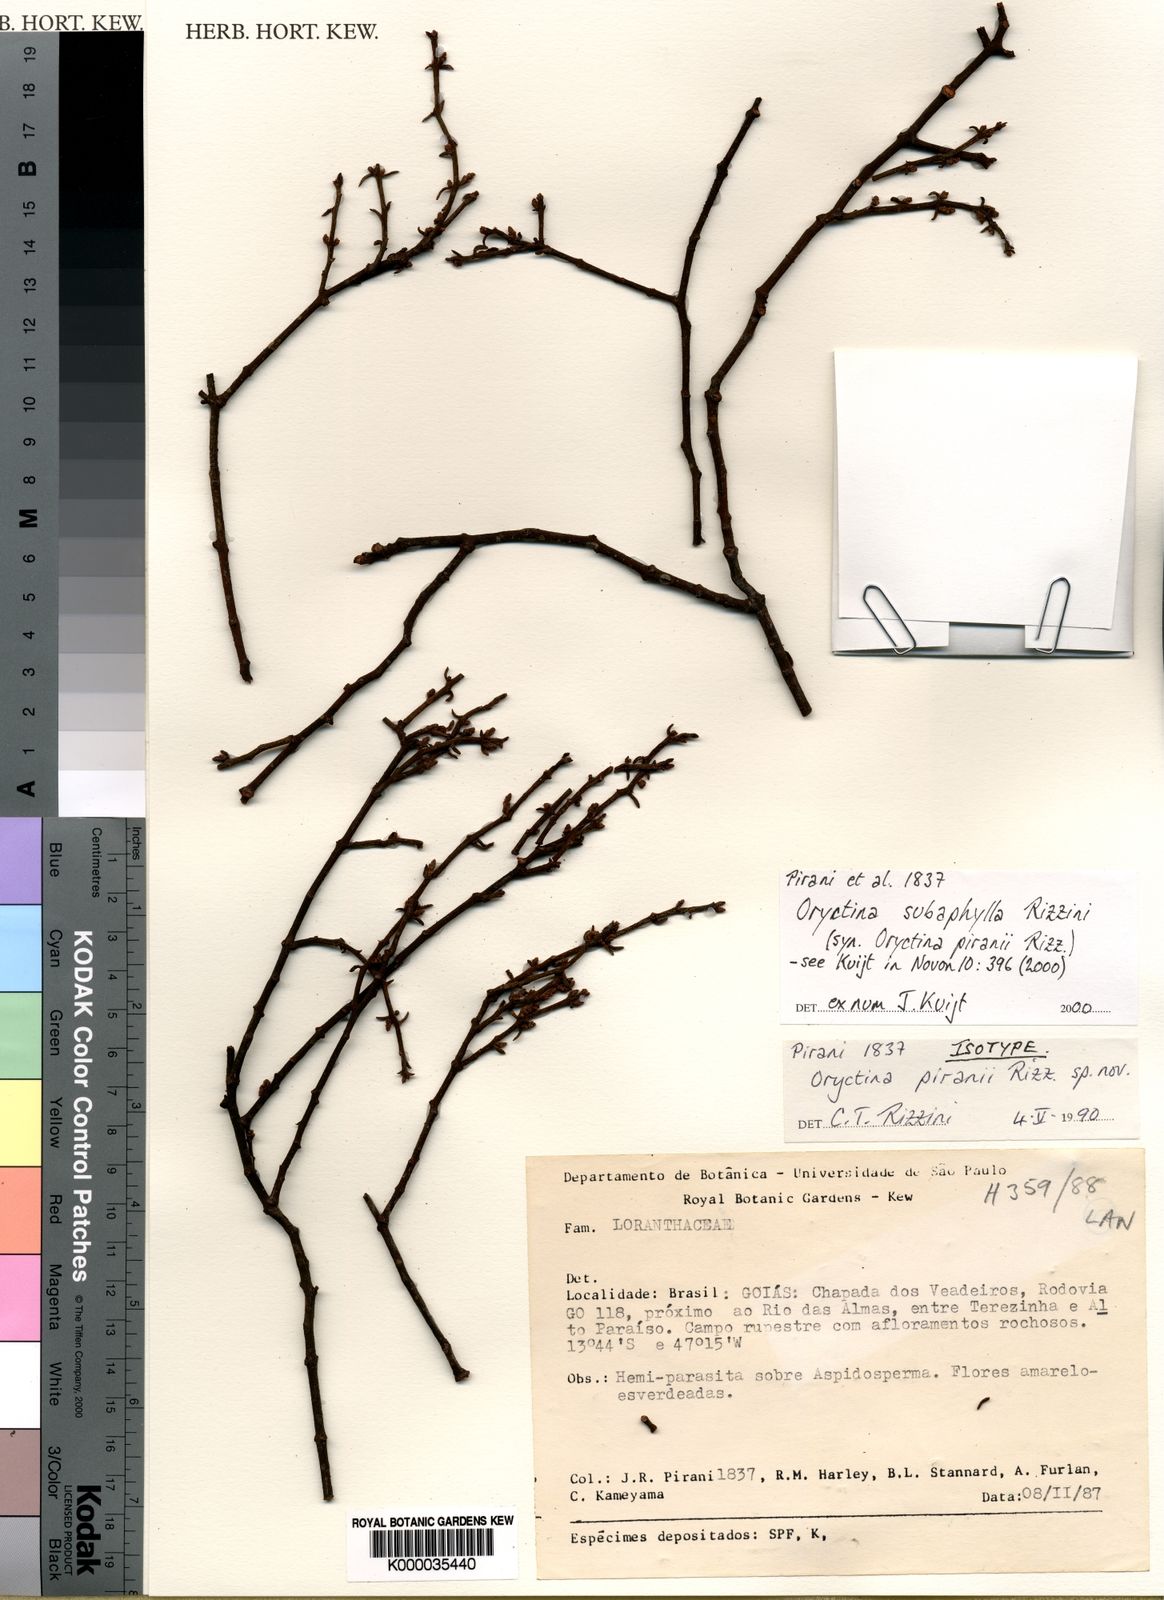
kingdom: Plantae
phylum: Tracheophyta
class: Magnoliopsida
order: Santalales
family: Loranthaceae
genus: Oryctina
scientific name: Oryctina subaphylla
